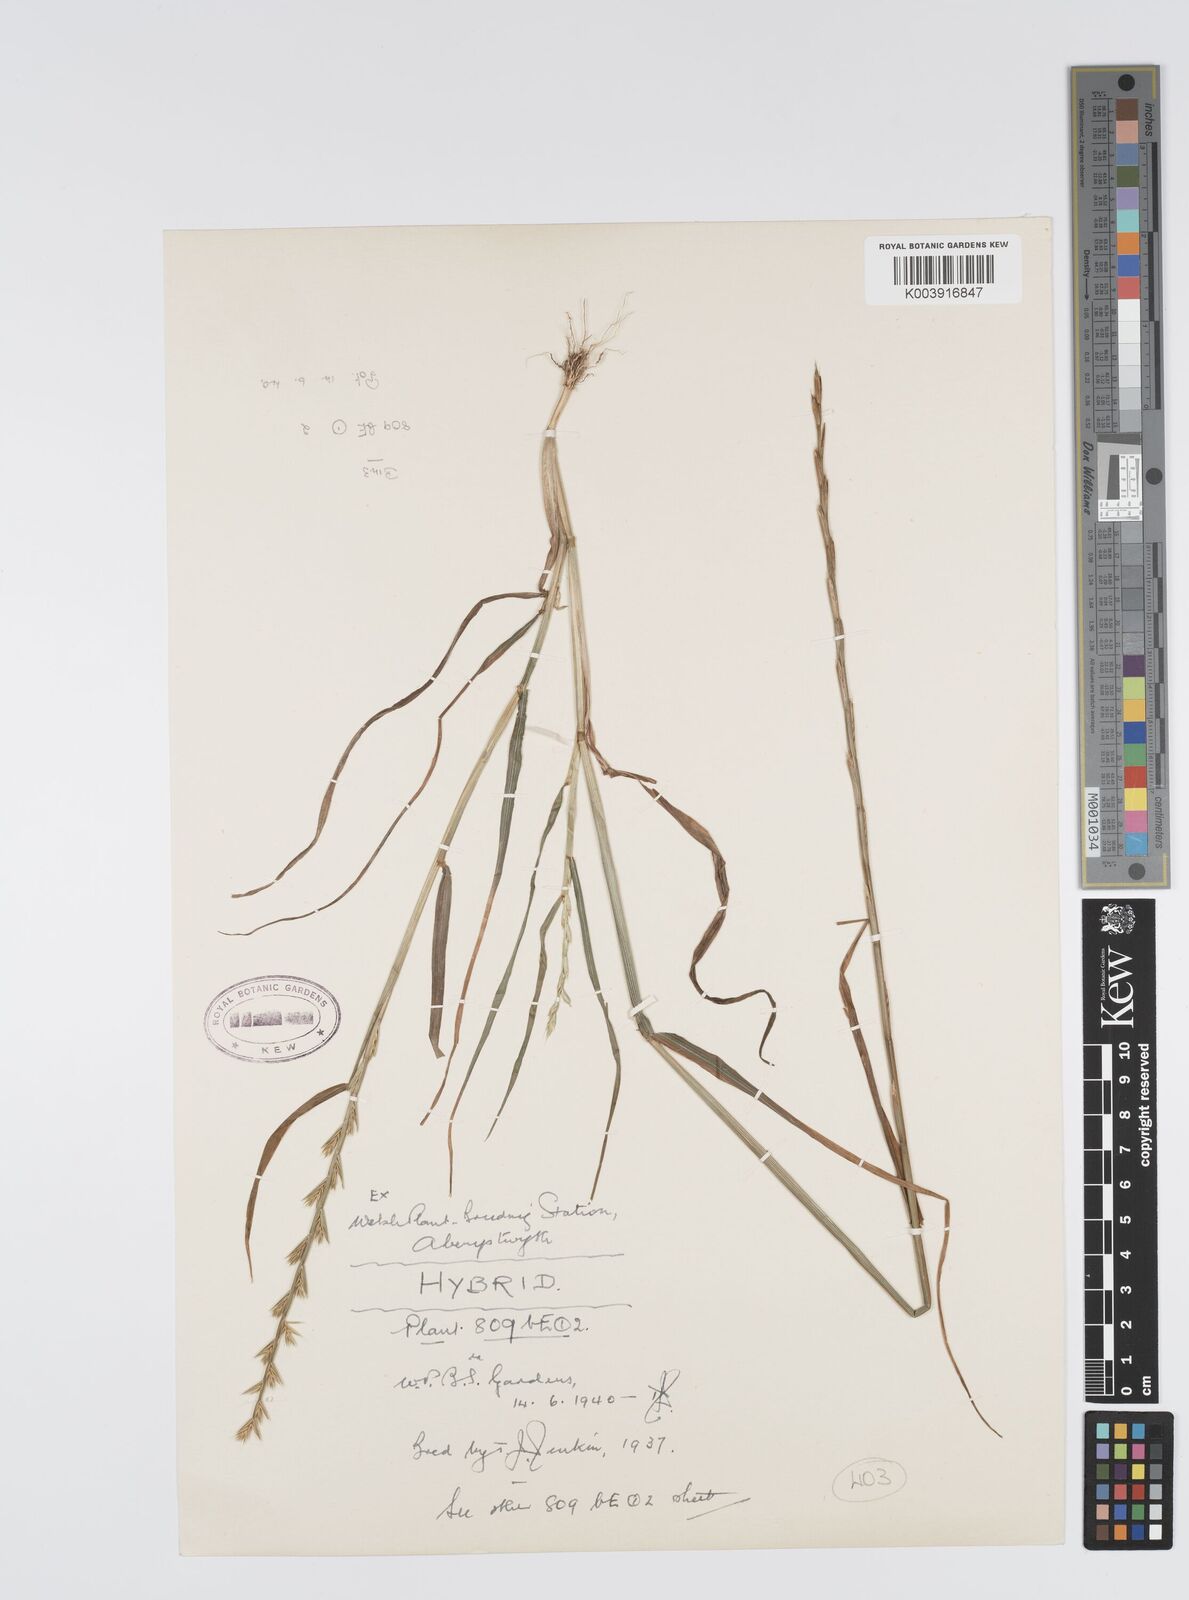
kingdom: Plantae
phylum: Tracheophyta
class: Liliopsida
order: Poales
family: Poaceae
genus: Lolium
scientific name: Lolium multiflorum
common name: Annual ryegrass
